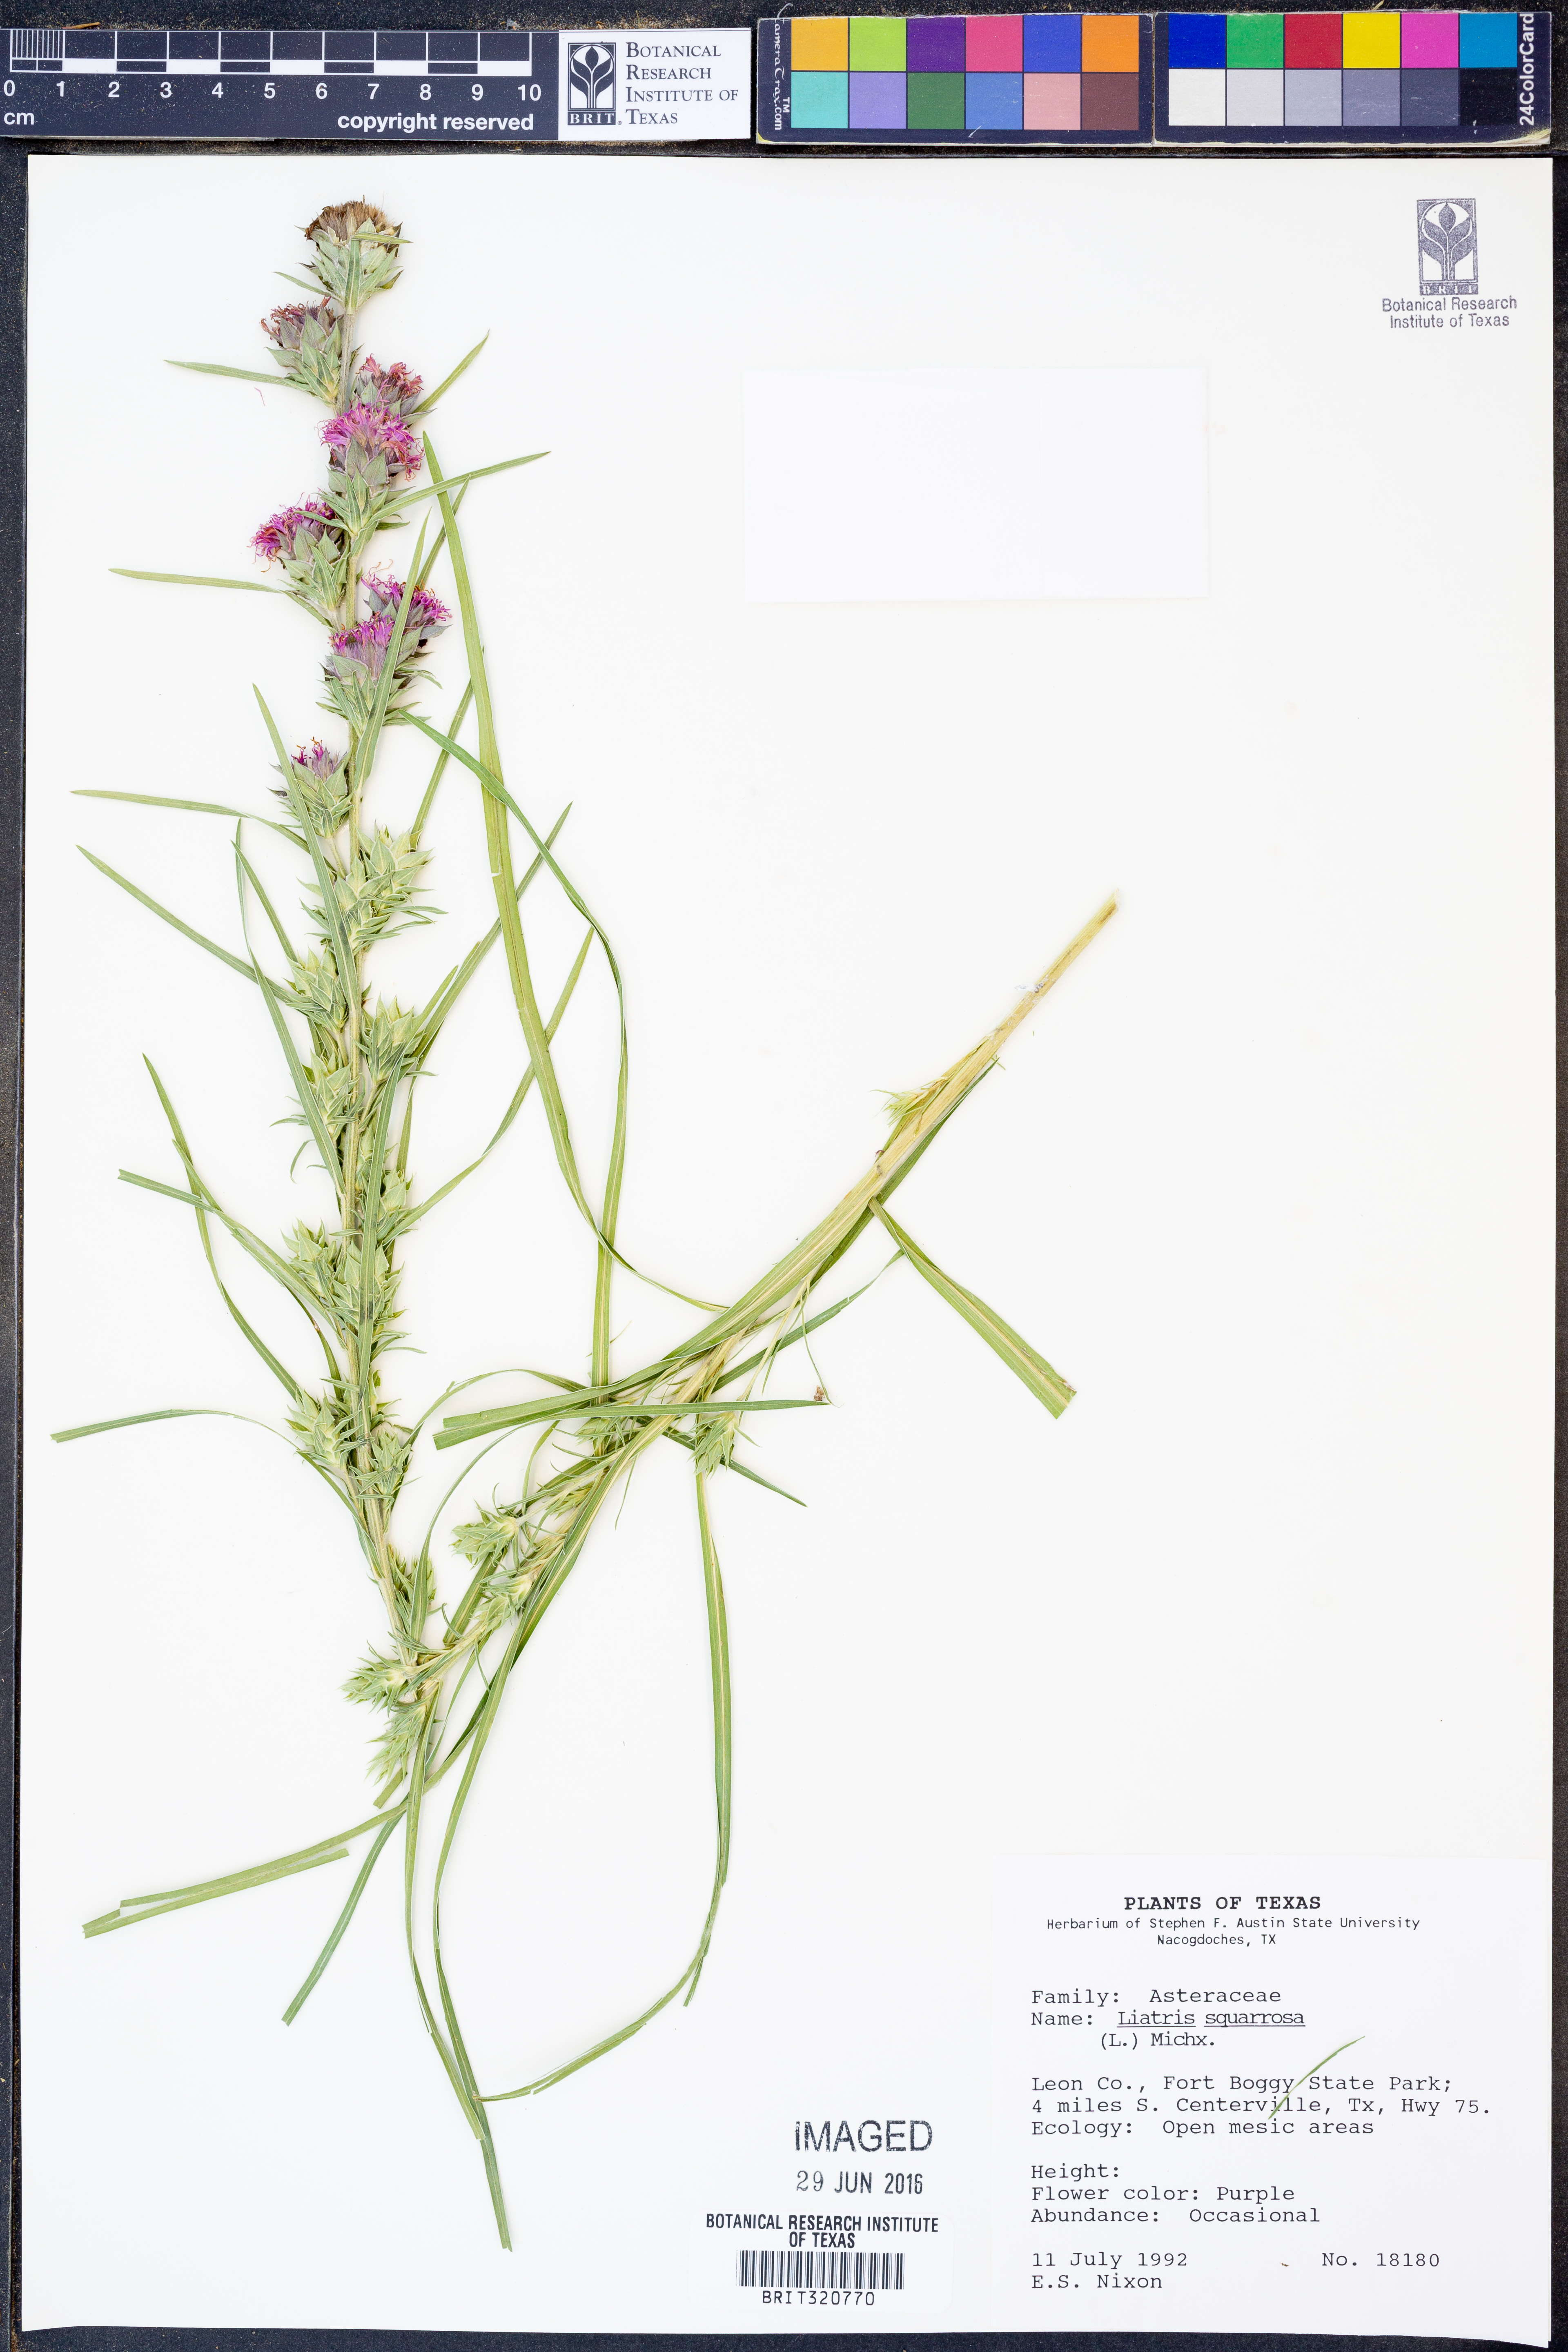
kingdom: Plantae
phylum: Tracheophyta
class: Magnoliopsida
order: Asterales
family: Asteraceae
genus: Liatris
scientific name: Liatris squarrosa
